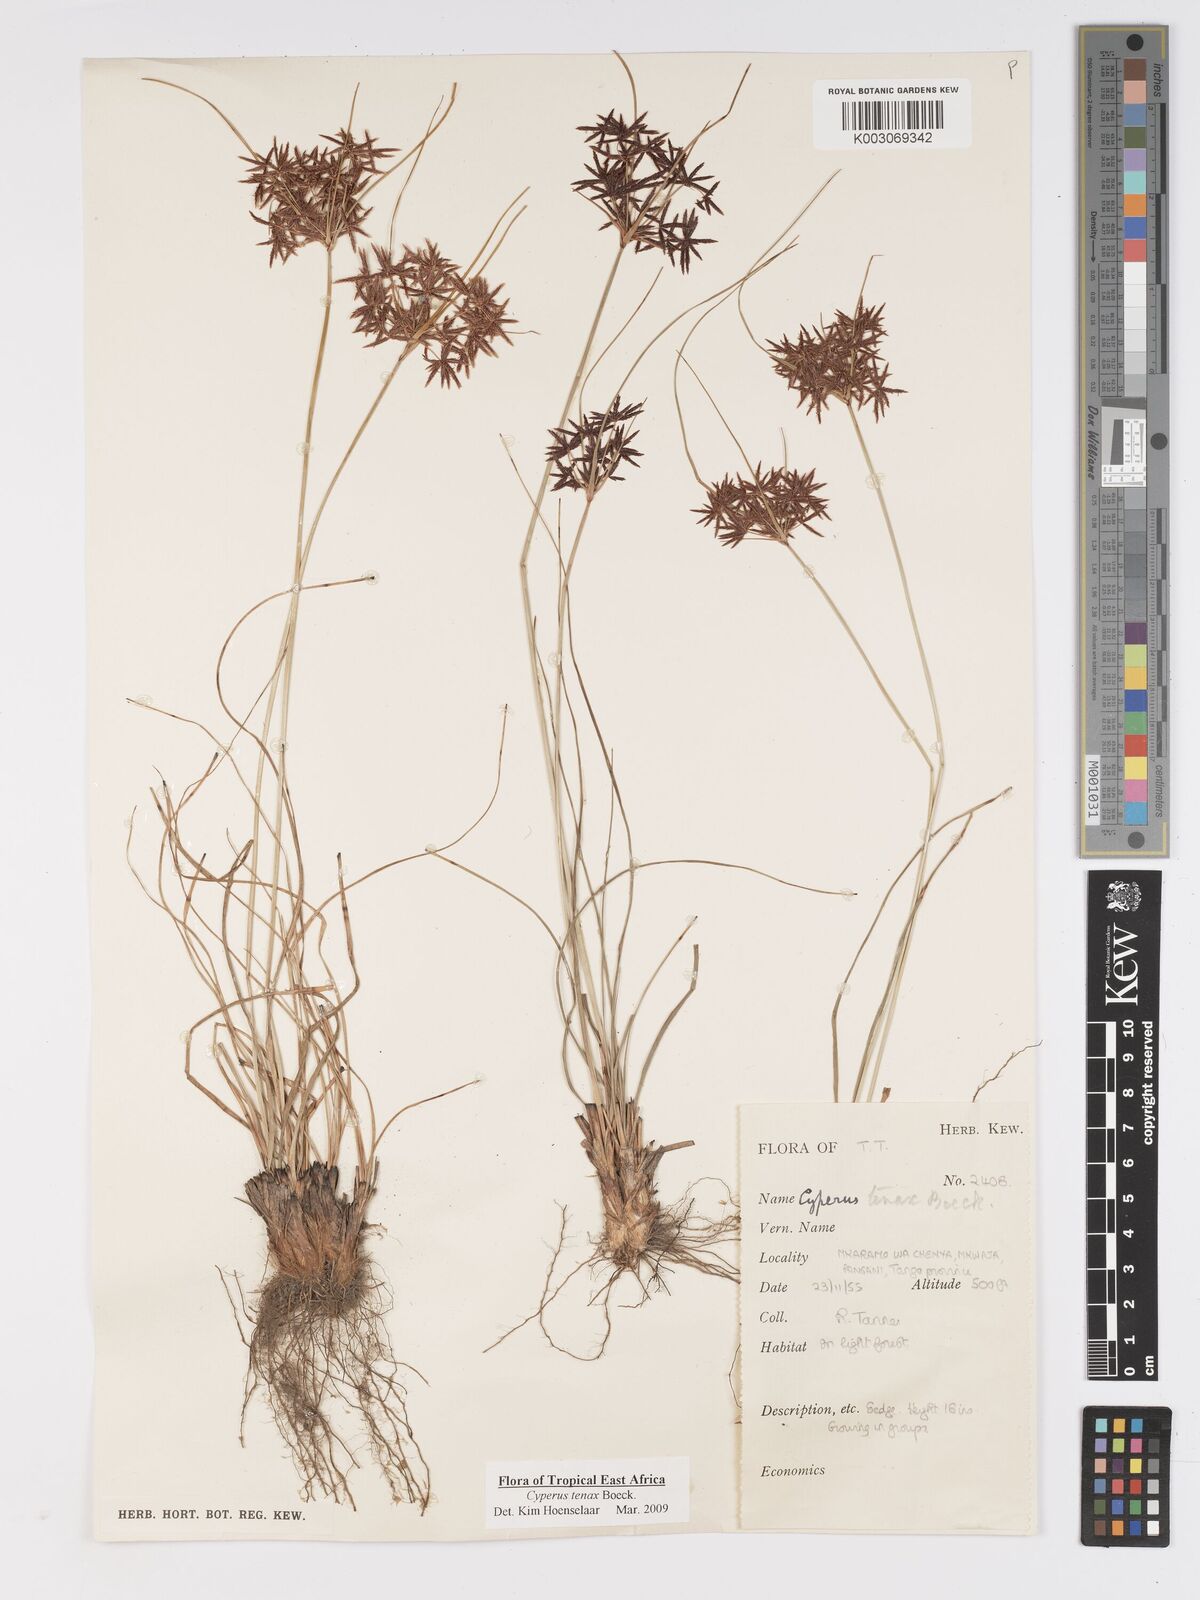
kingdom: Plantae
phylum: Tracheophyta
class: Liliopsida
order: Poales
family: Cyperaceae
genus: Cyperus
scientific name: Cyperus tenax
